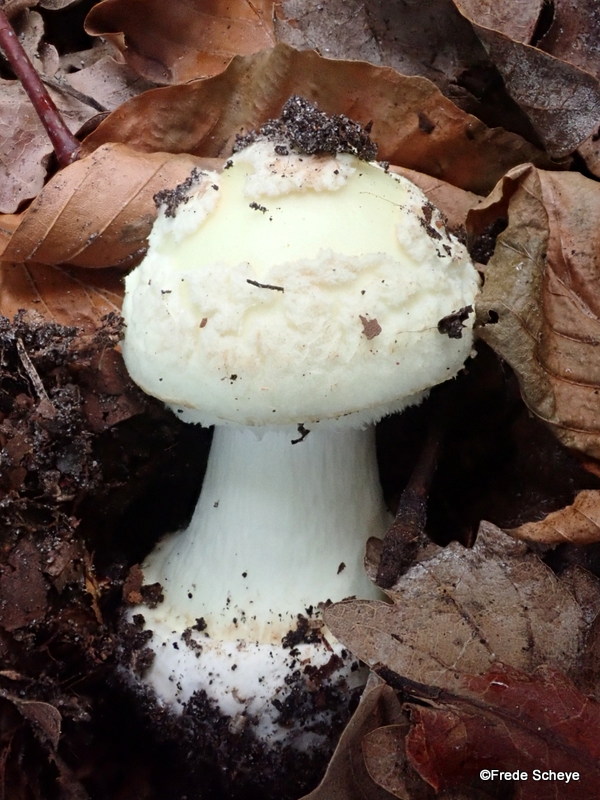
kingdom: Fungi
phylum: Basidiomycota
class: Agaricomycetes
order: Agaricales
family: Amanitaceae
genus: Amanita
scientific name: Amanita citrina
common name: kugleknoldet fluesvamp
